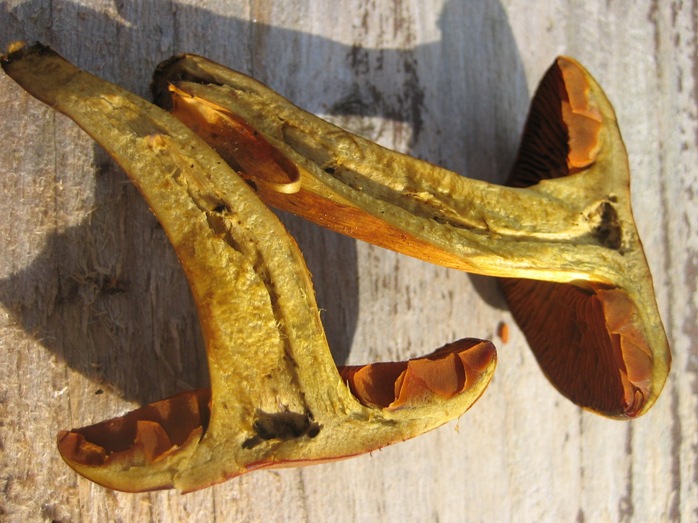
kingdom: Fungi
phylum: Basidiomycota
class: Agaricomycetes
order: Agaricales
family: Cortinariaceae
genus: Cortinarius
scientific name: Cortinarius malicorius
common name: grønkødet slørhat
